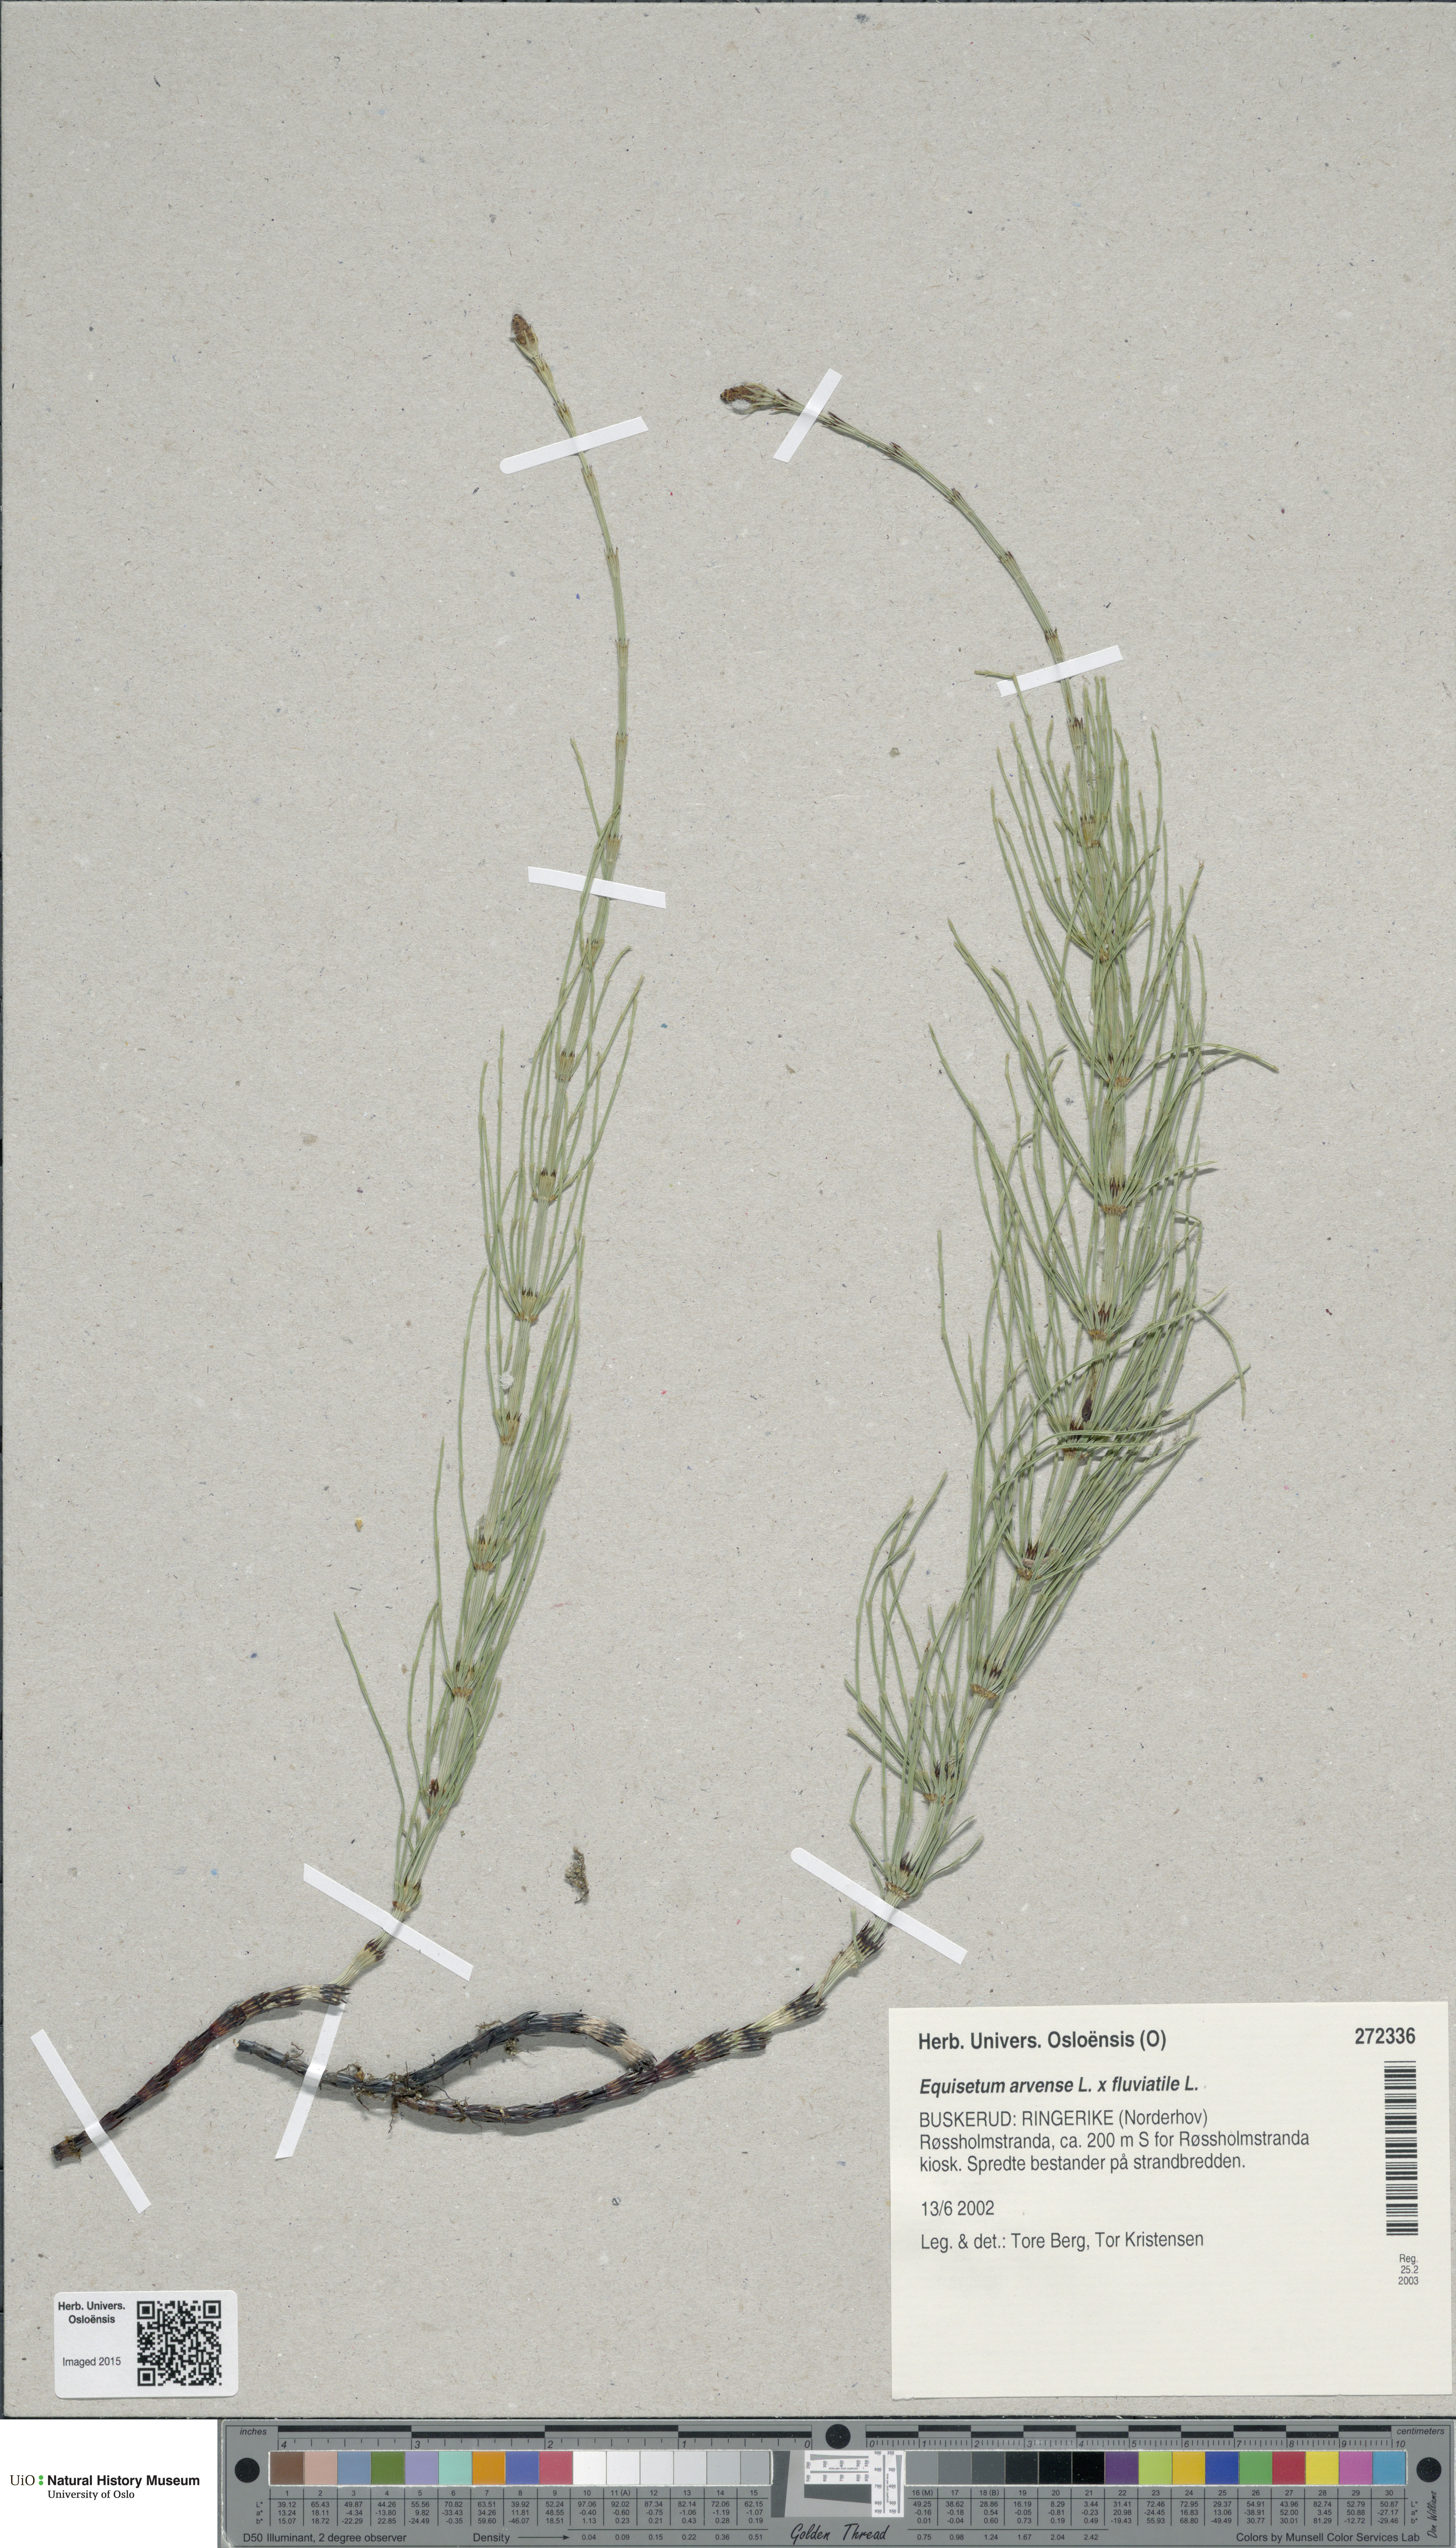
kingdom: Plantae
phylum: Tracheophyta
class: Polypodiopsida
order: Equisetales
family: Equisetaceae
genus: Equisetum
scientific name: Equisetum
